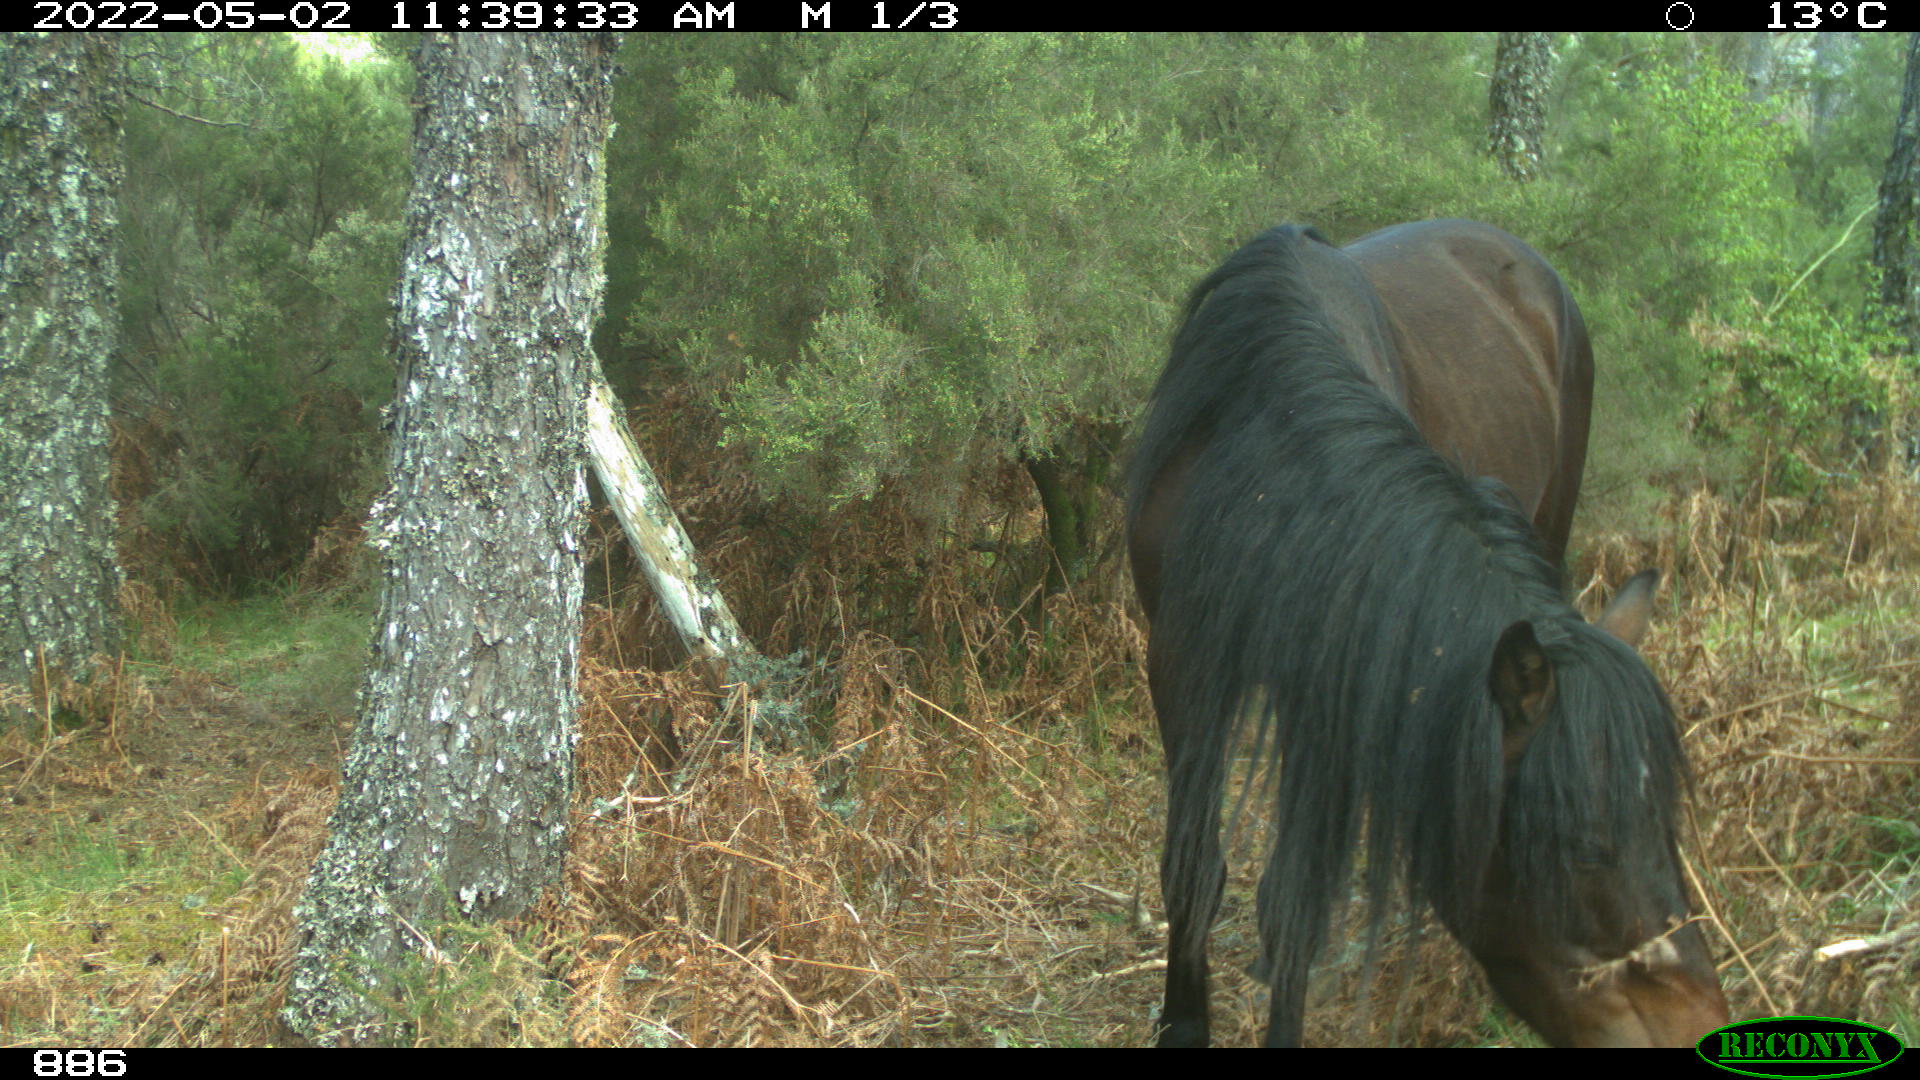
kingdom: Animalia
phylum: Chordata
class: Mammalia
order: Perissodactyla
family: Equidae
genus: Equus
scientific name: Equus caballus
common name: Horse
